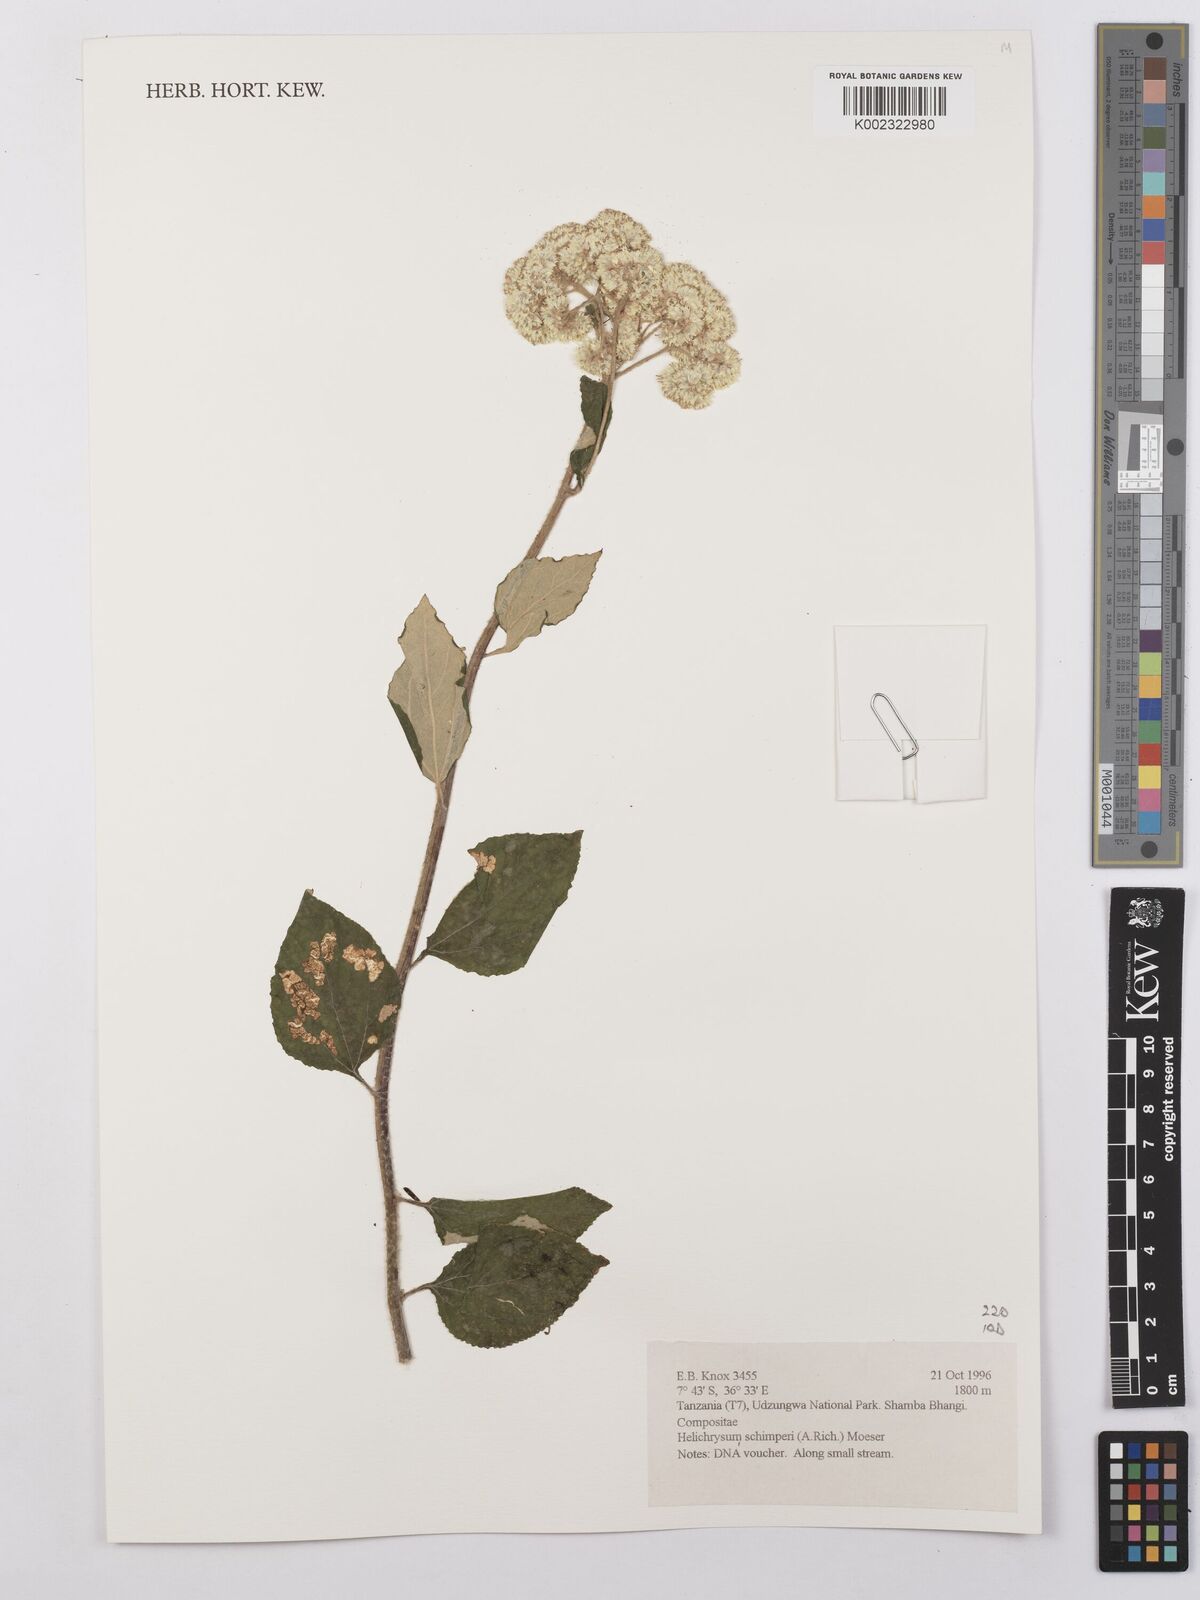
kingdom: Plantae
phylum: Tracheophyta
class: Magnoliopsida
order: Asterales
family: Asteraceae
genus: Helichrysum
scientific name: Helichrysum schimperi
